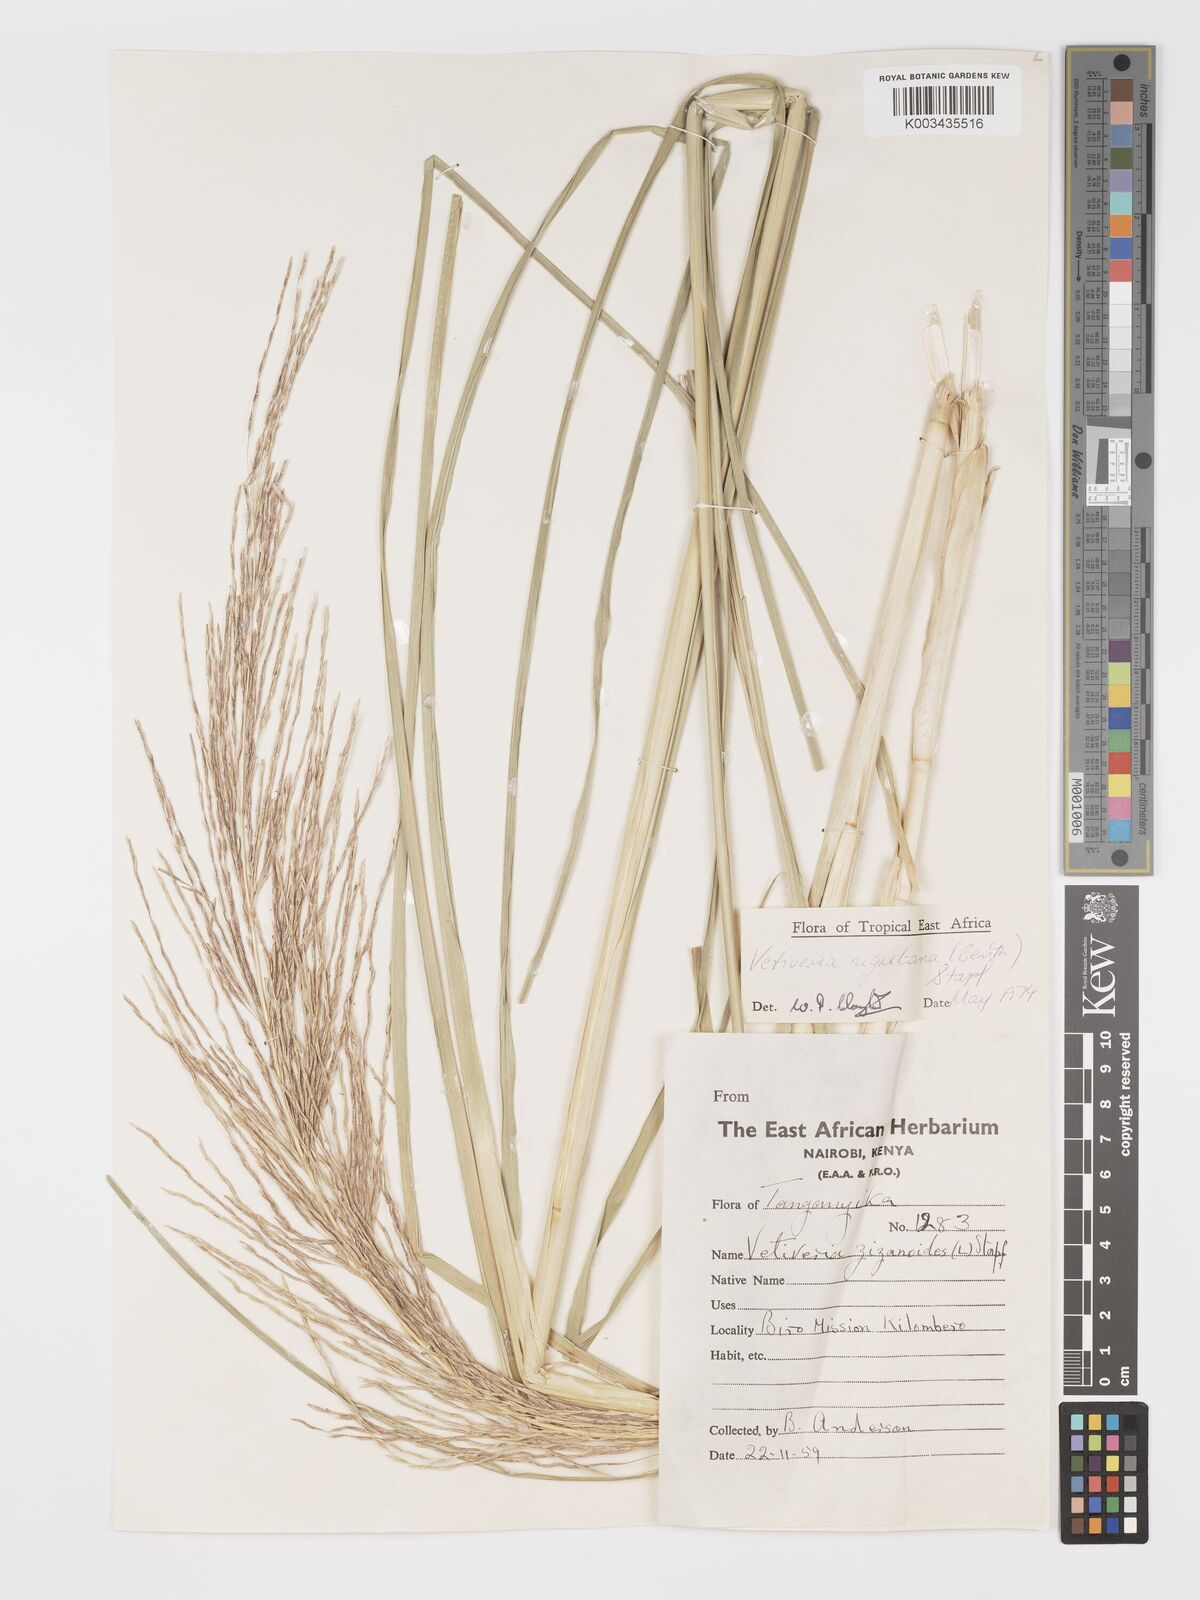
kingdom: Plantae
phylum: Tracheophyta
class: Liliopsida
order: Poales
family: Poaceae
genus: Chrysopogon
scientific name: Chrysopogon nigritanus
